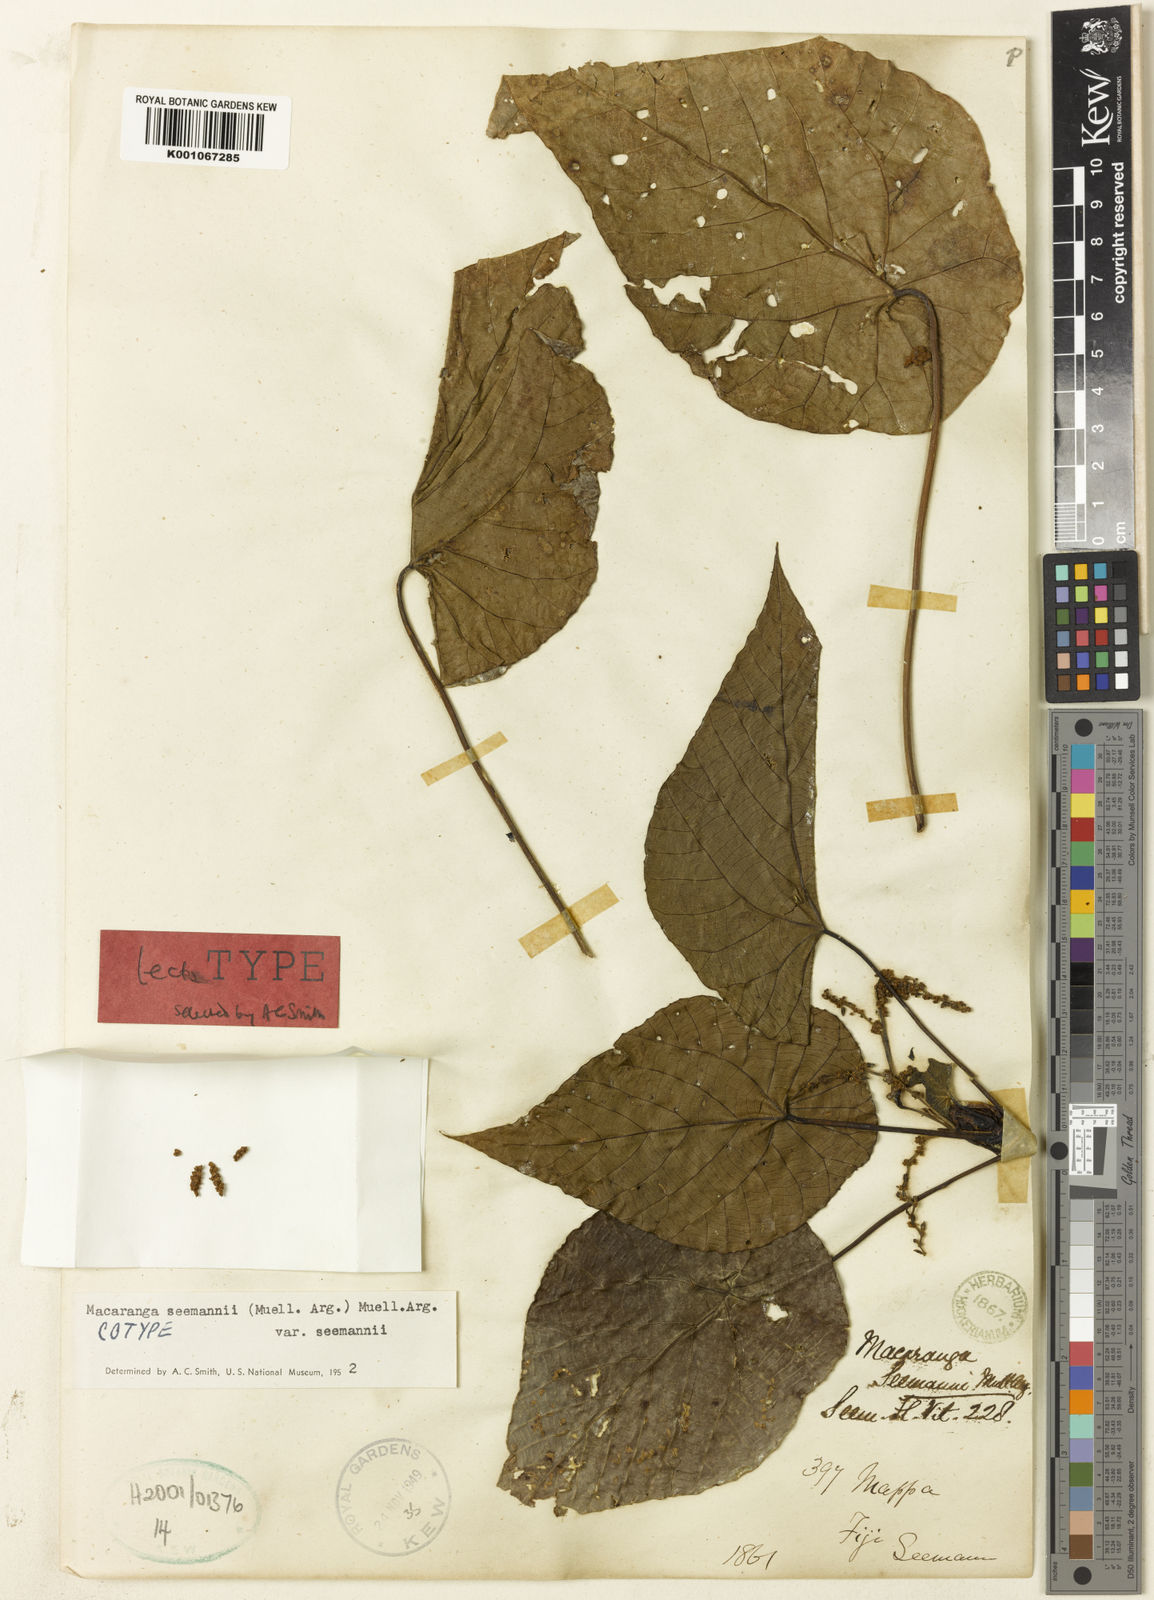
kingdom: Plantae
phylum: Tracheophyta
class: Magnoliopsida
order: Malpighiales
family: Euphorbiaceae
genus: Macaranga
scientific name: Macaranga
